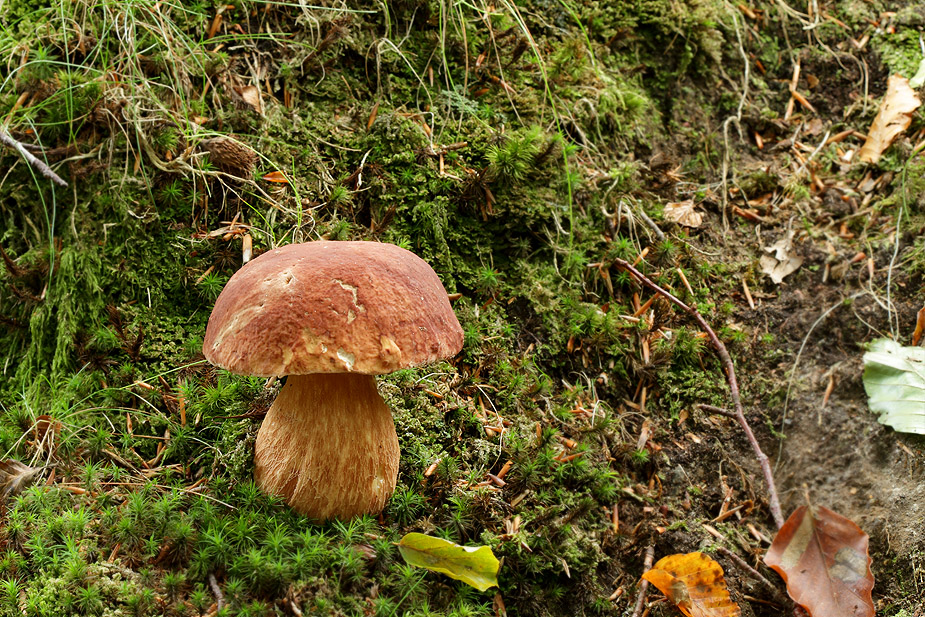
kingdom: Fungi
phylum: Basidiomycota
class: Agaricomycetes
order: Boletales
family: Boletaceae
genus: Boletus
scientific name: Boletus edulis
